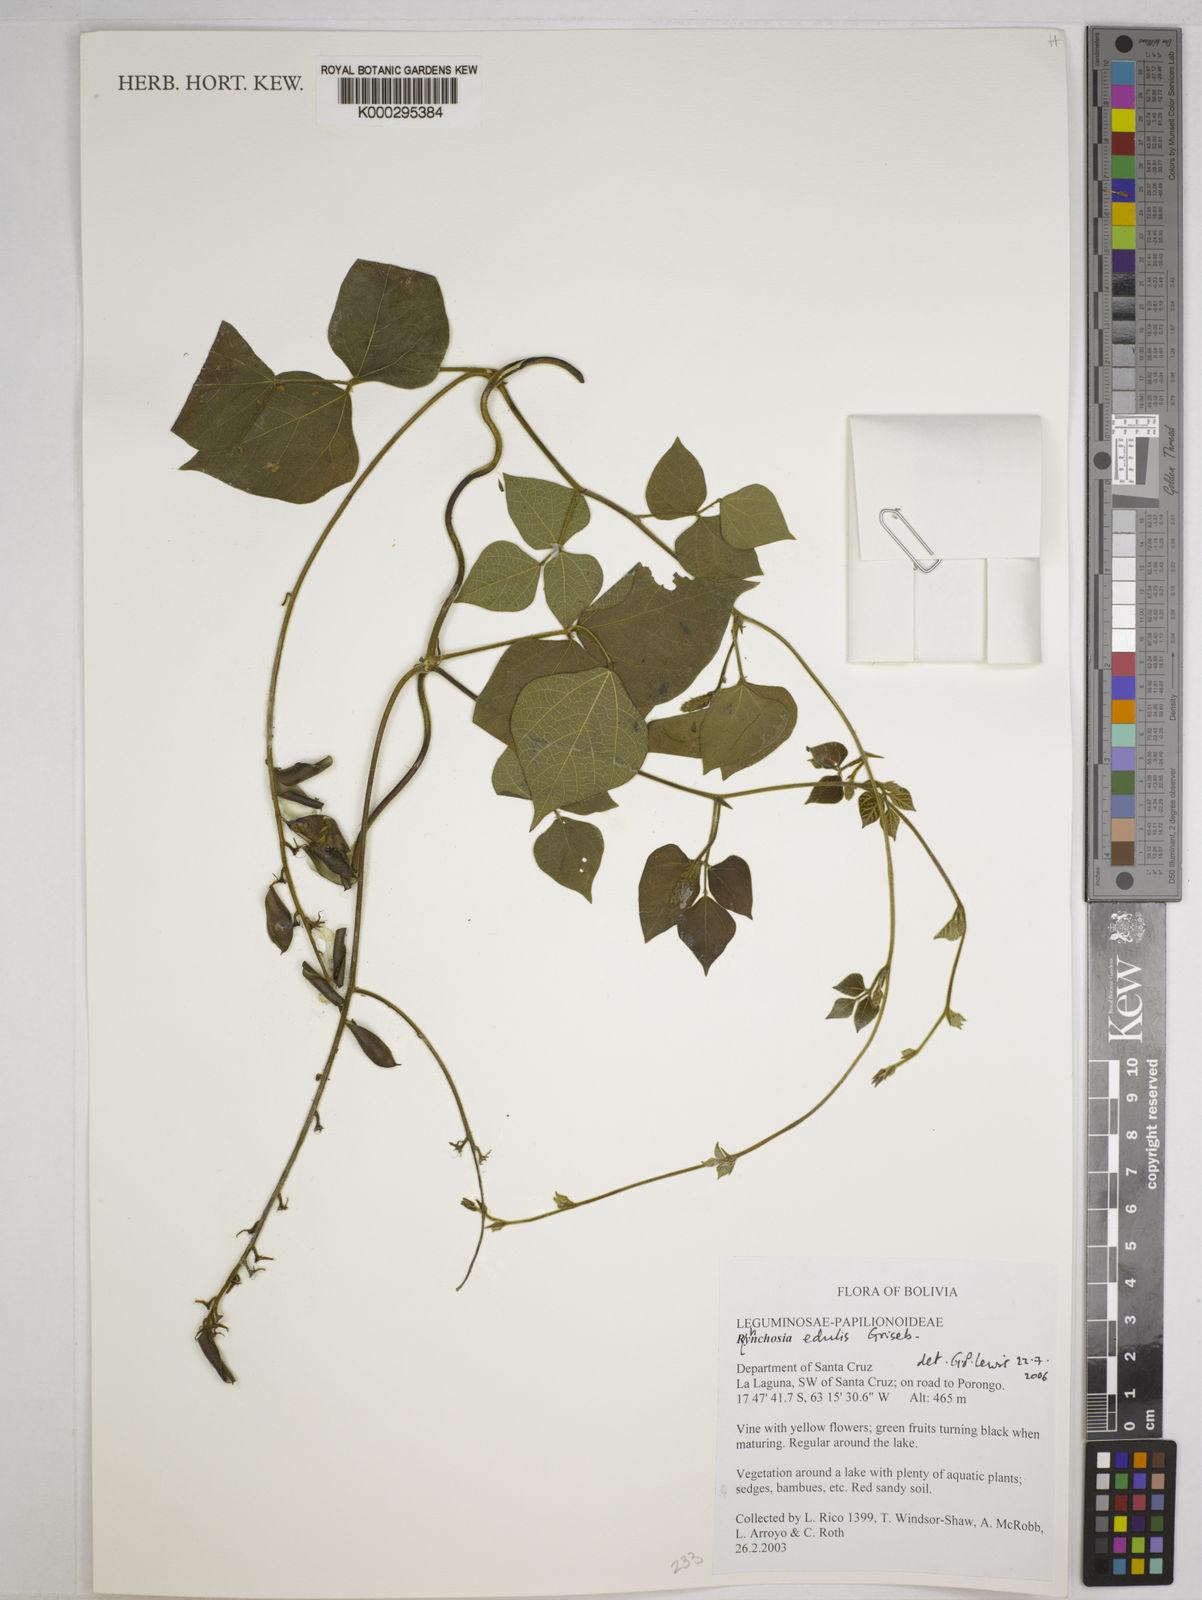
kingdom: Plantae
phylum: Tracheophyta
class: Magnoliopsida
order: Fabales
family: Fabaceae
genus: Rhynchosia
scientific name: Rhynchosia edulis
